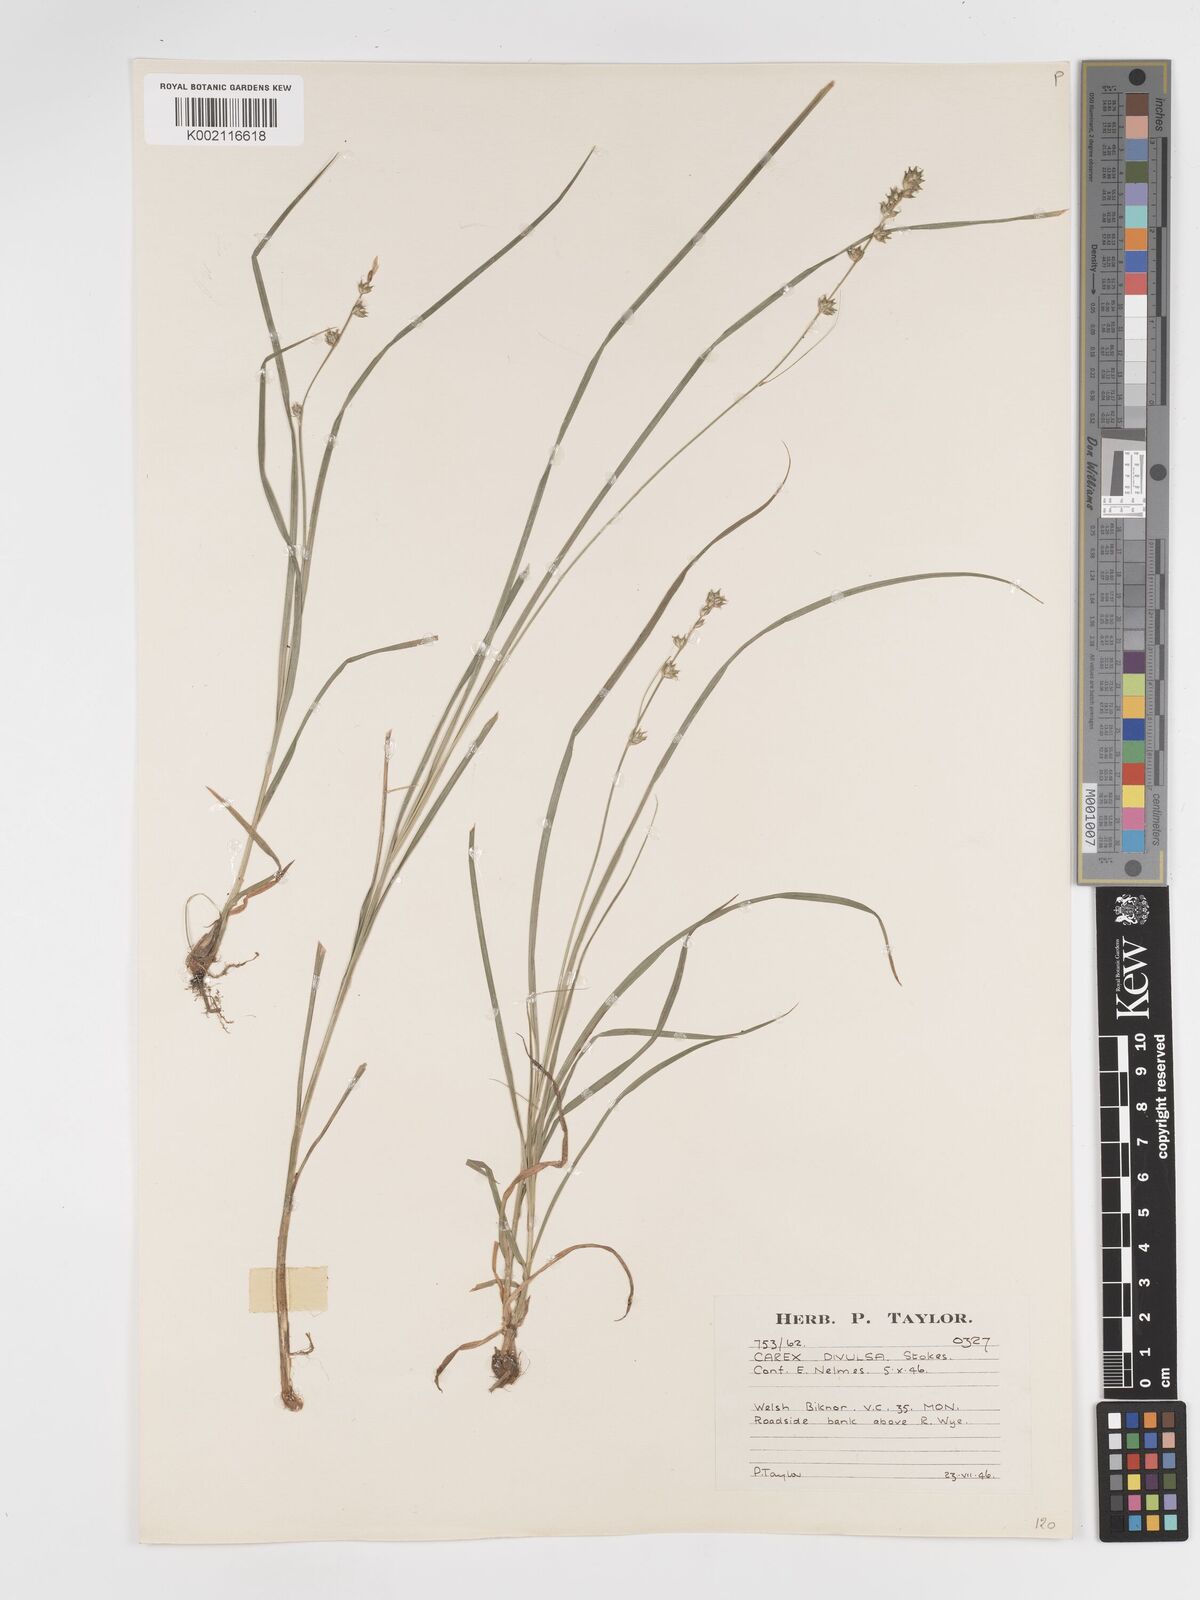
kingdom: Plantae
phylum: Tracheophyta
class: Liliopsida
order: Poales
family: Cyperaceae
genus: Carex
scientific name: Carex divulsa
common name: Grassland sedge
